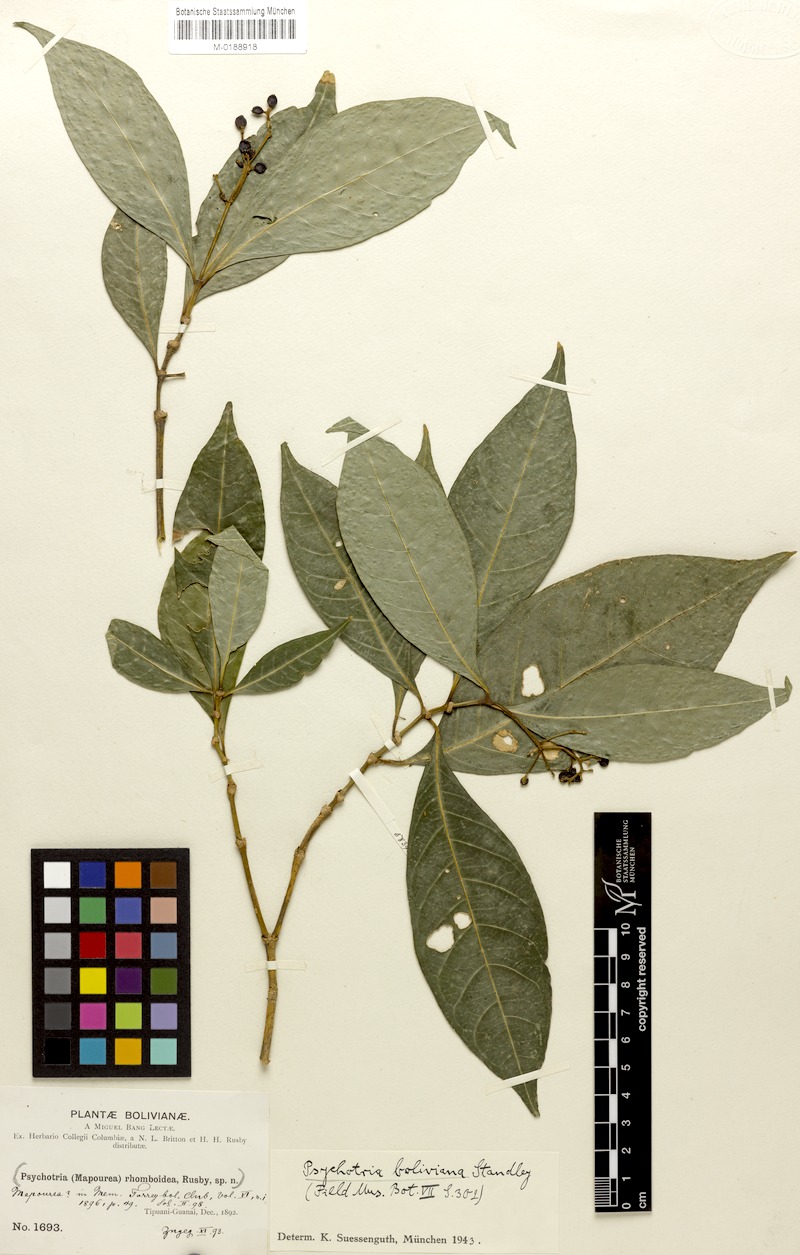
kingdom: Plantae
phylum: Tracheophyta
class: Magnoliopsida
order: Gentianales
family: Rubiaceae
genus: Eumachia
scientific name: Eumachia boliviana
